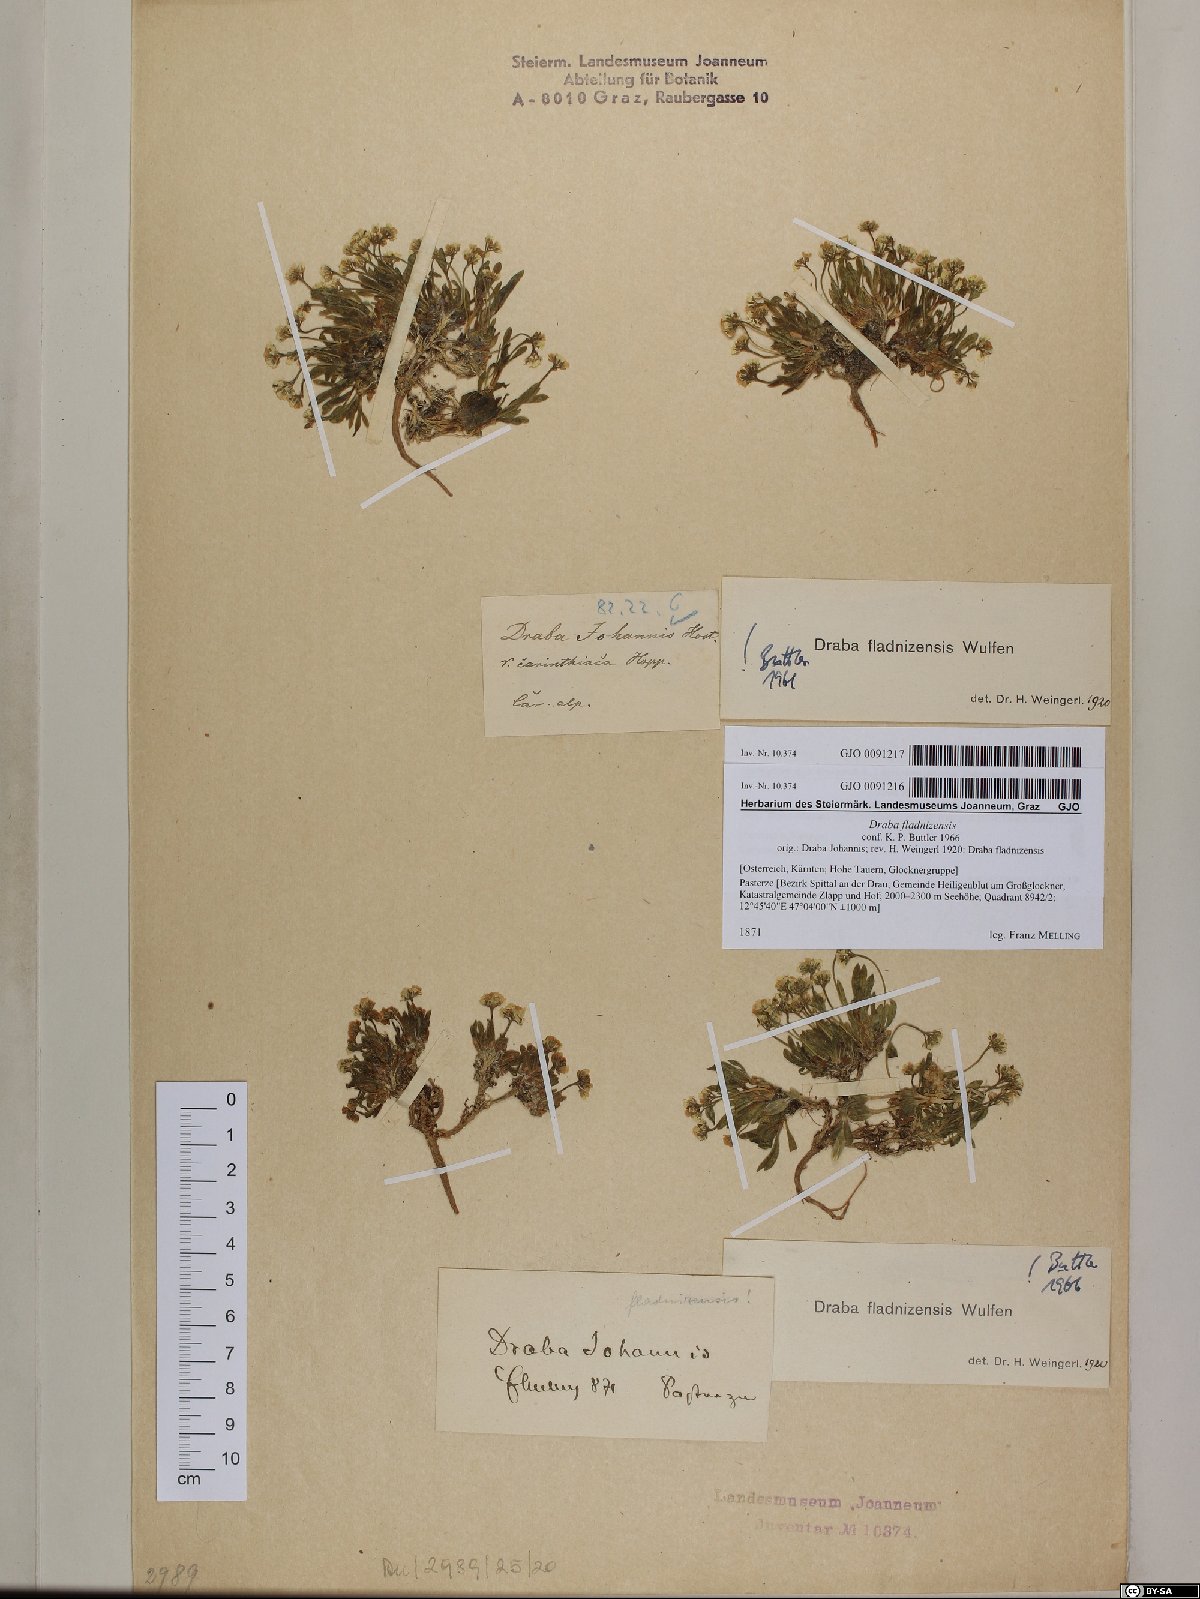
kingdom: Plantae
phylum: Tracheophyta
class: Magnoliopsida
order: Brassicales
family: Brassicaceae
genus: Draba
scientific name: Draba fladnizensis
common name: Austrian draba
